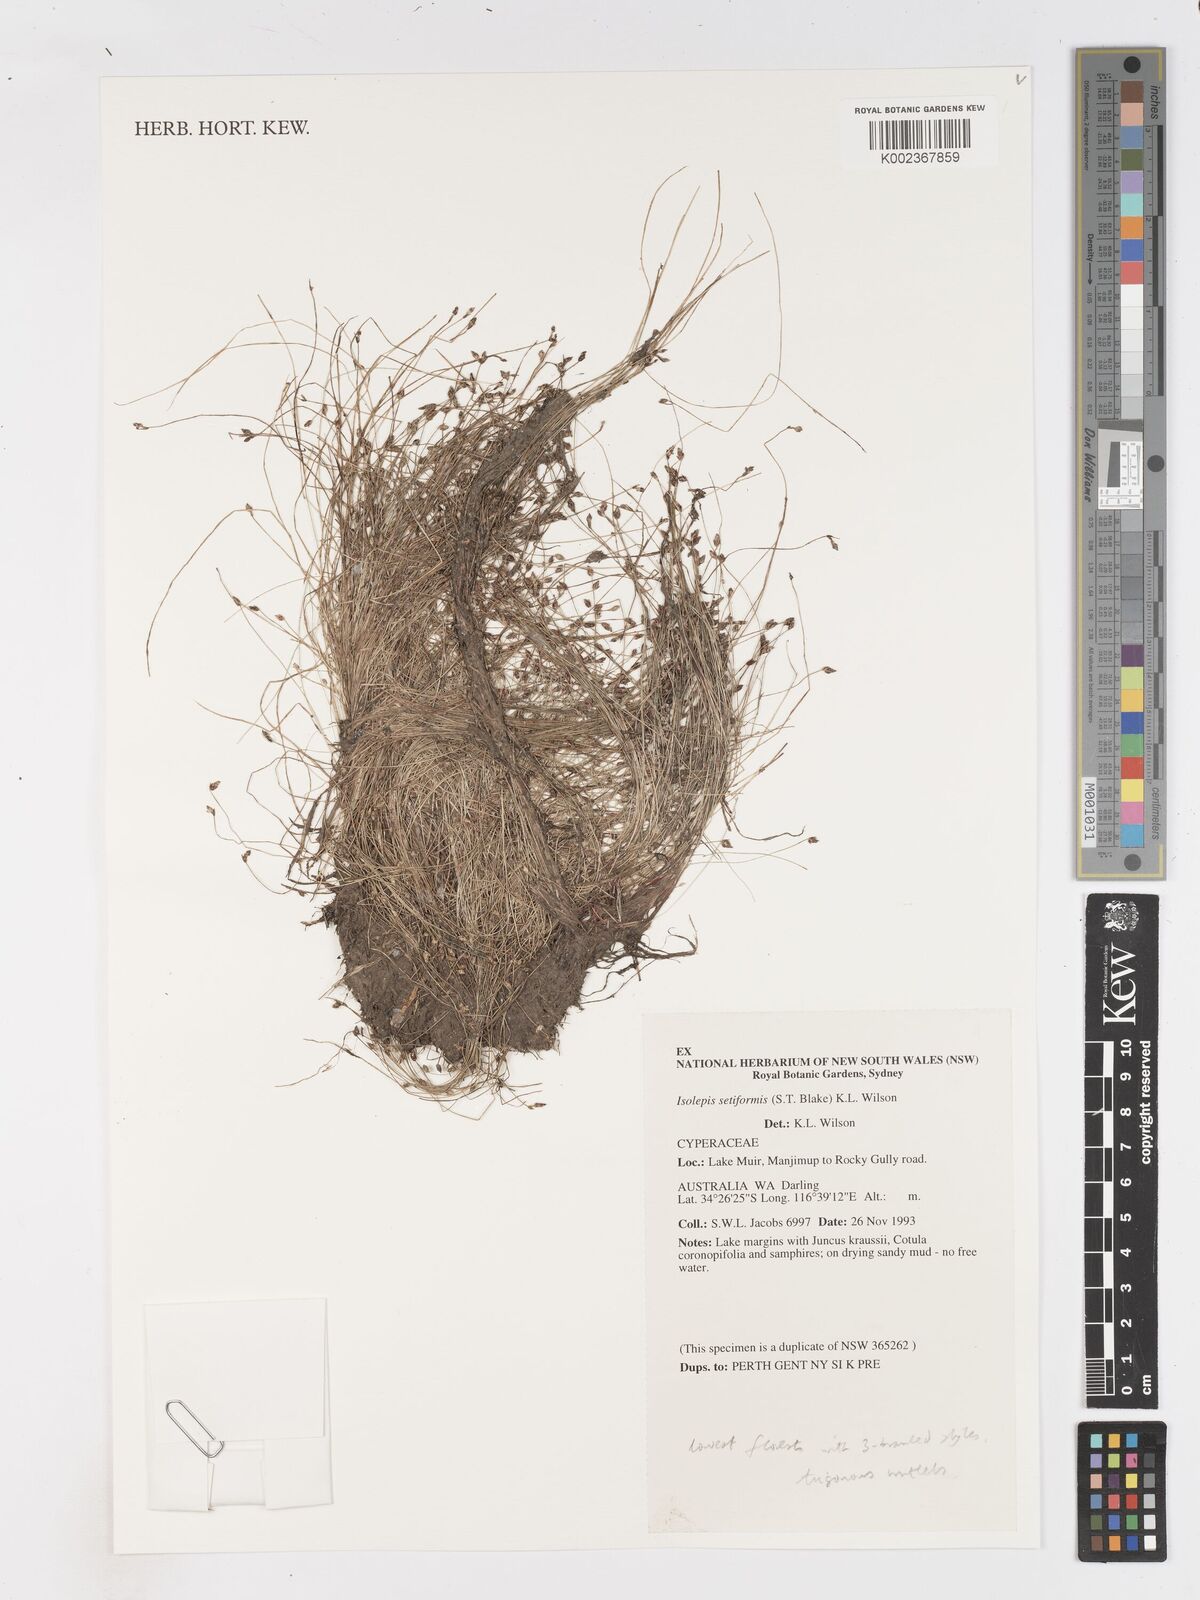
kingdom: Plantae
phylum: Tracheophyta
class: Liliopsida
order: Poales
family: Cyperaceae
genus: Isolepis
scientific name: Isolepis cernua
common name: Slender club-rush
